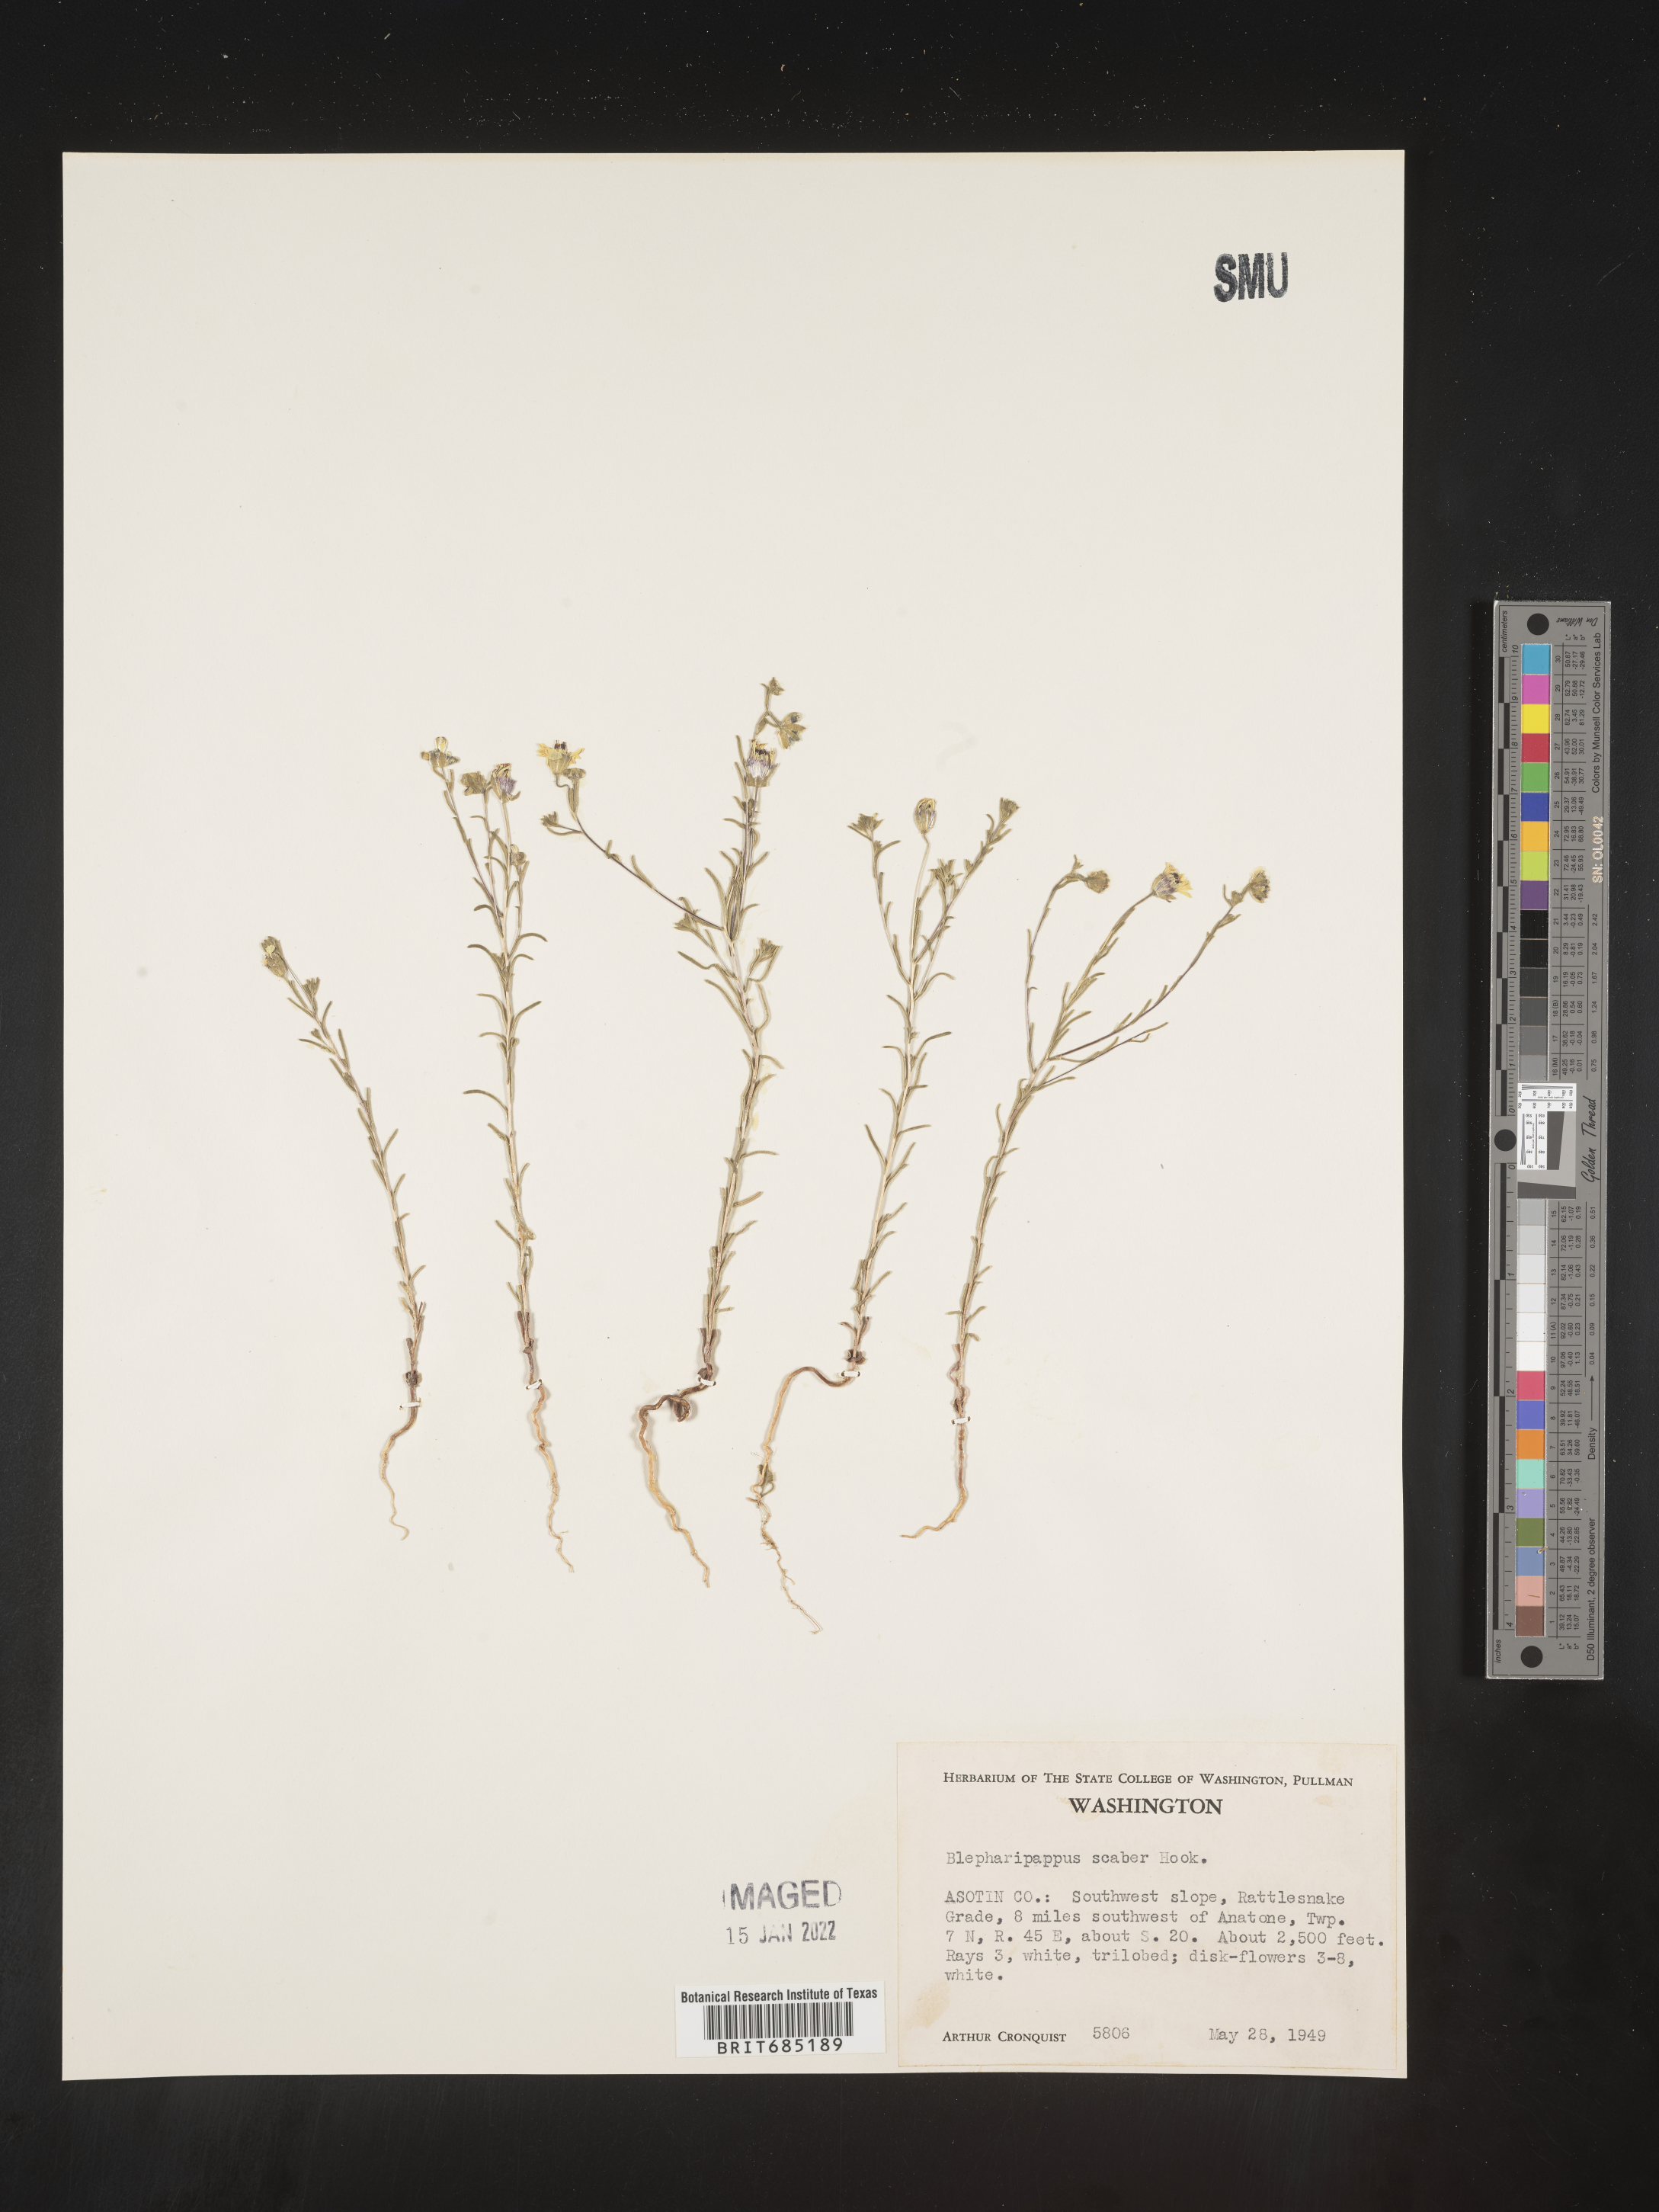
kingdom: Plantae
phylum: Tracheophyta
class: Magnoliopsida
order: Asterales
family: Asteraceae
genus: Blepharipappus
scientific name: Blepharipappus
